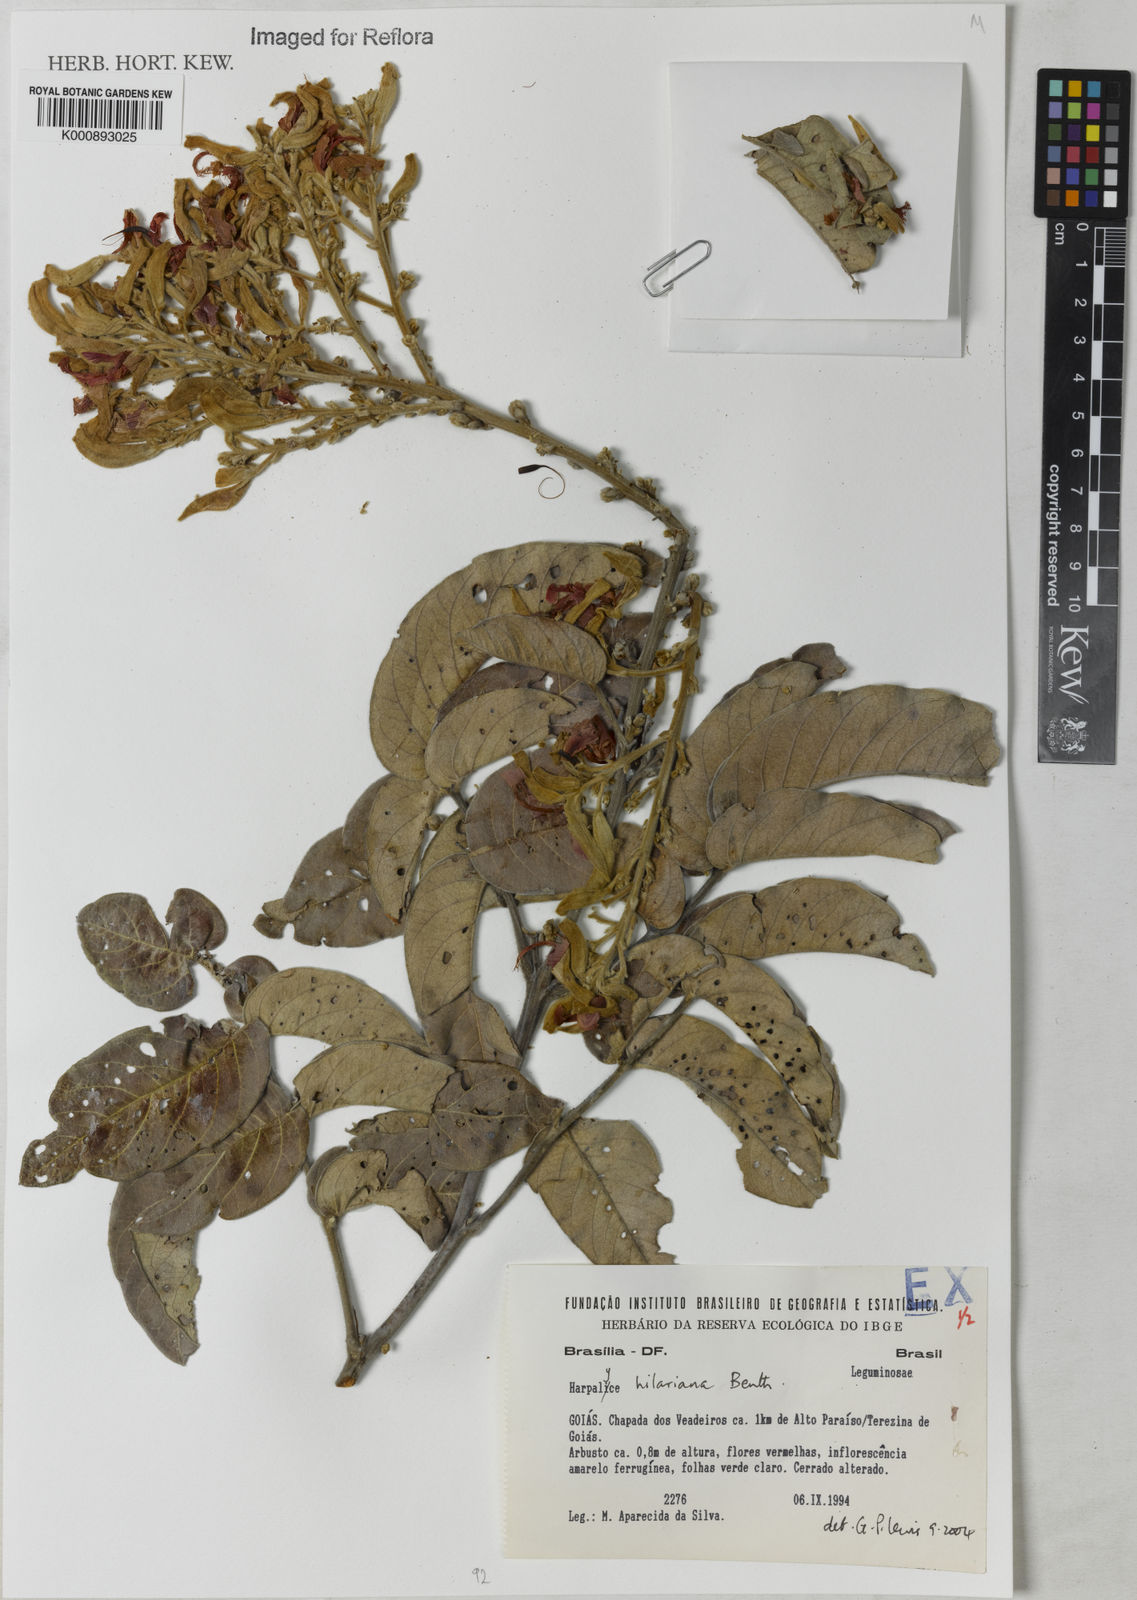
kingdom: Plantae
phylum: Tracheophyta
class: Magnoliopsida
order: Fabales
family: Fabaceae
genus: Harpalyce
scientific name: Harpalyce hilariana
